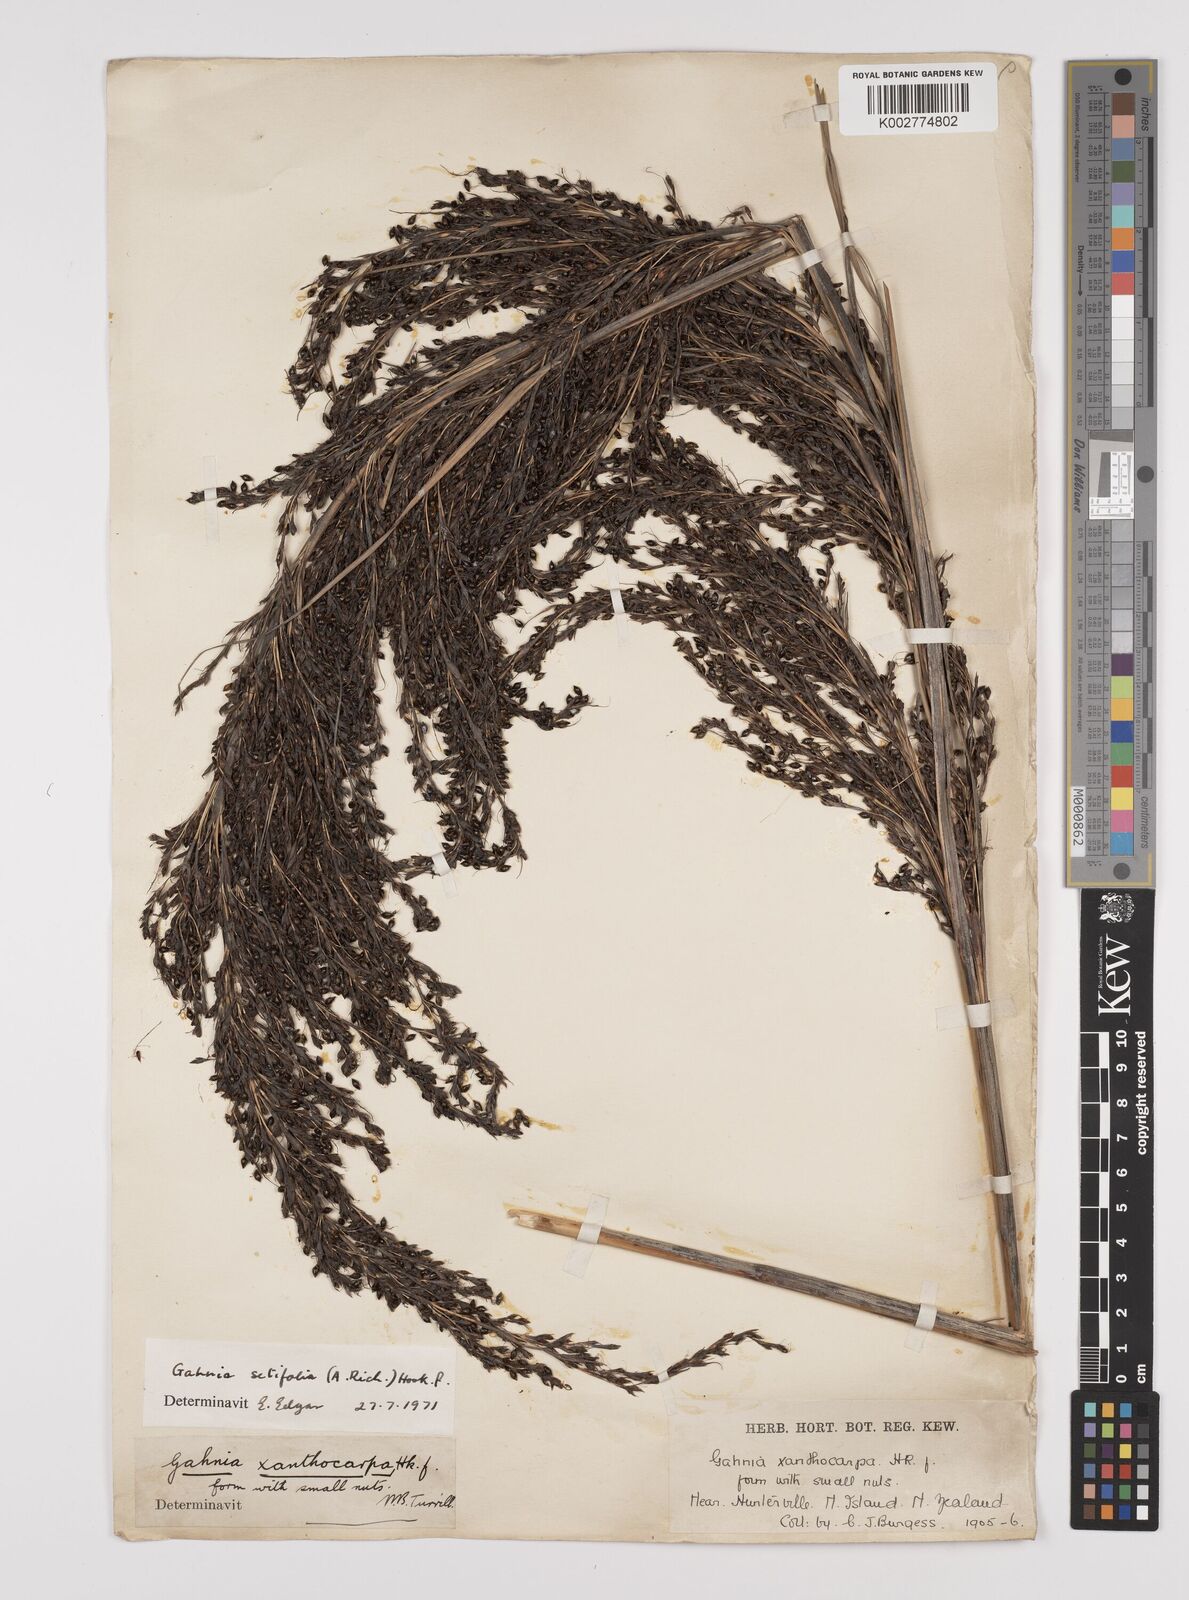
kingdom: Plantae
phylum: Tracheophyta
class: Liliopsida
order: Poales
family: Cyperaceae
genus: Gahnia
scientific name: Gahnia setifolia
